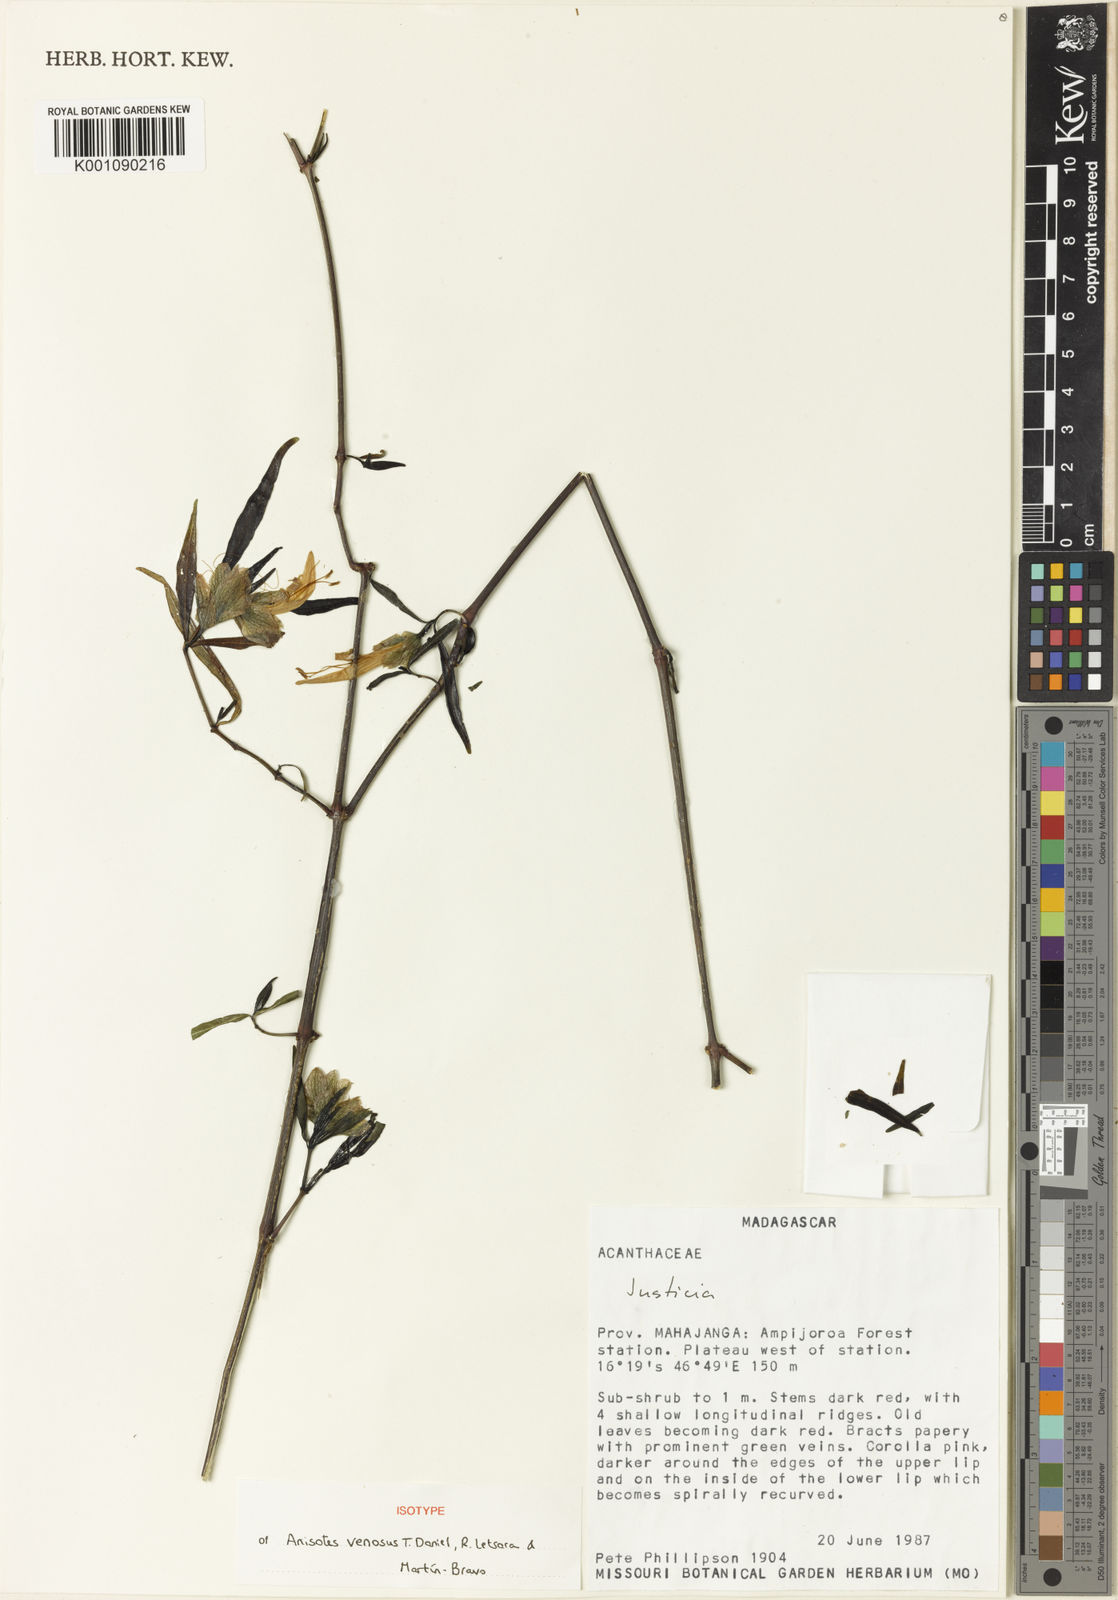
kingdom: Plantae
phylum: Tracheophyta
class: Magnoliopsida
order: Lamiales
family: Acanthaceae
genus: Anisotes
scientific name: Anisotes
